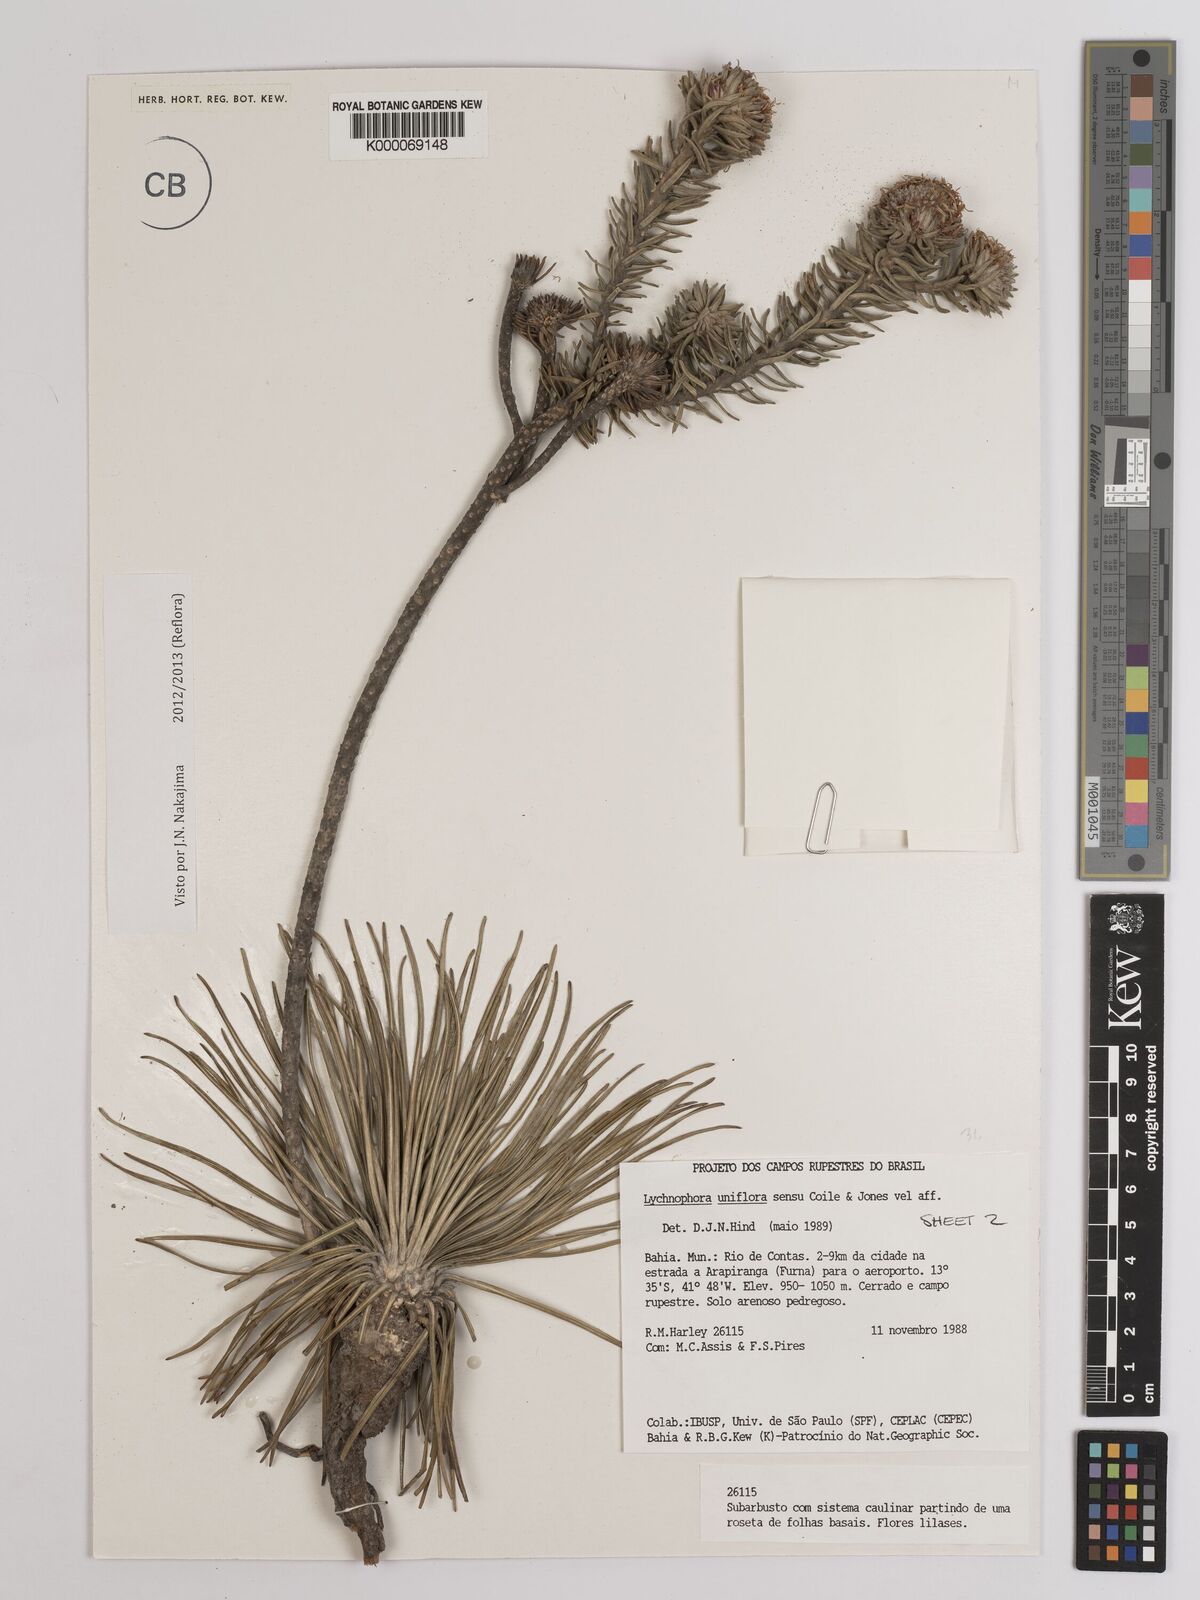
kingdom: Plantae
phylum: Tracheophyta
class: Magnoliopsida
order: Asterales
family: Asteraceae
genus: Lychnophora
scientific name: Lychnophora uniflora
